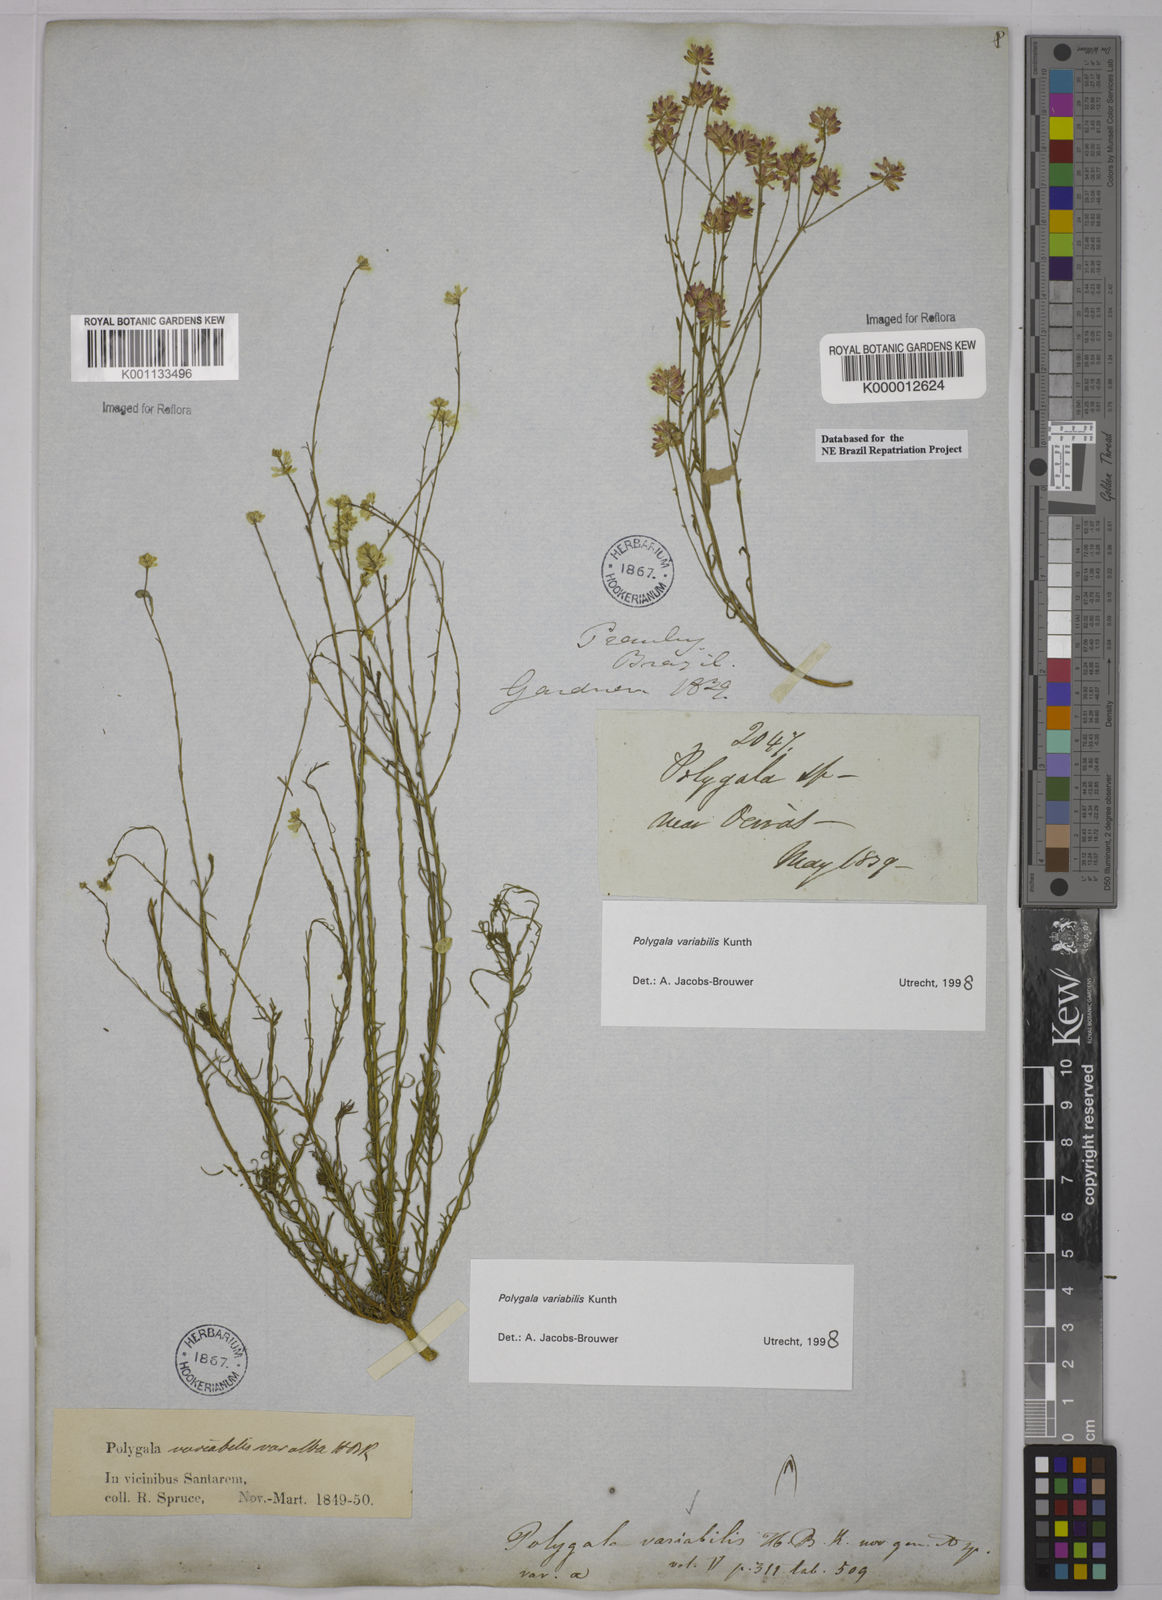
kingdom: Plantae
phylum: Tracheophyta
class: Magnoliopsida
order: Fabales
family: Polygalaceae
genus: Polygala
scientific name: Polygala trichosperma
